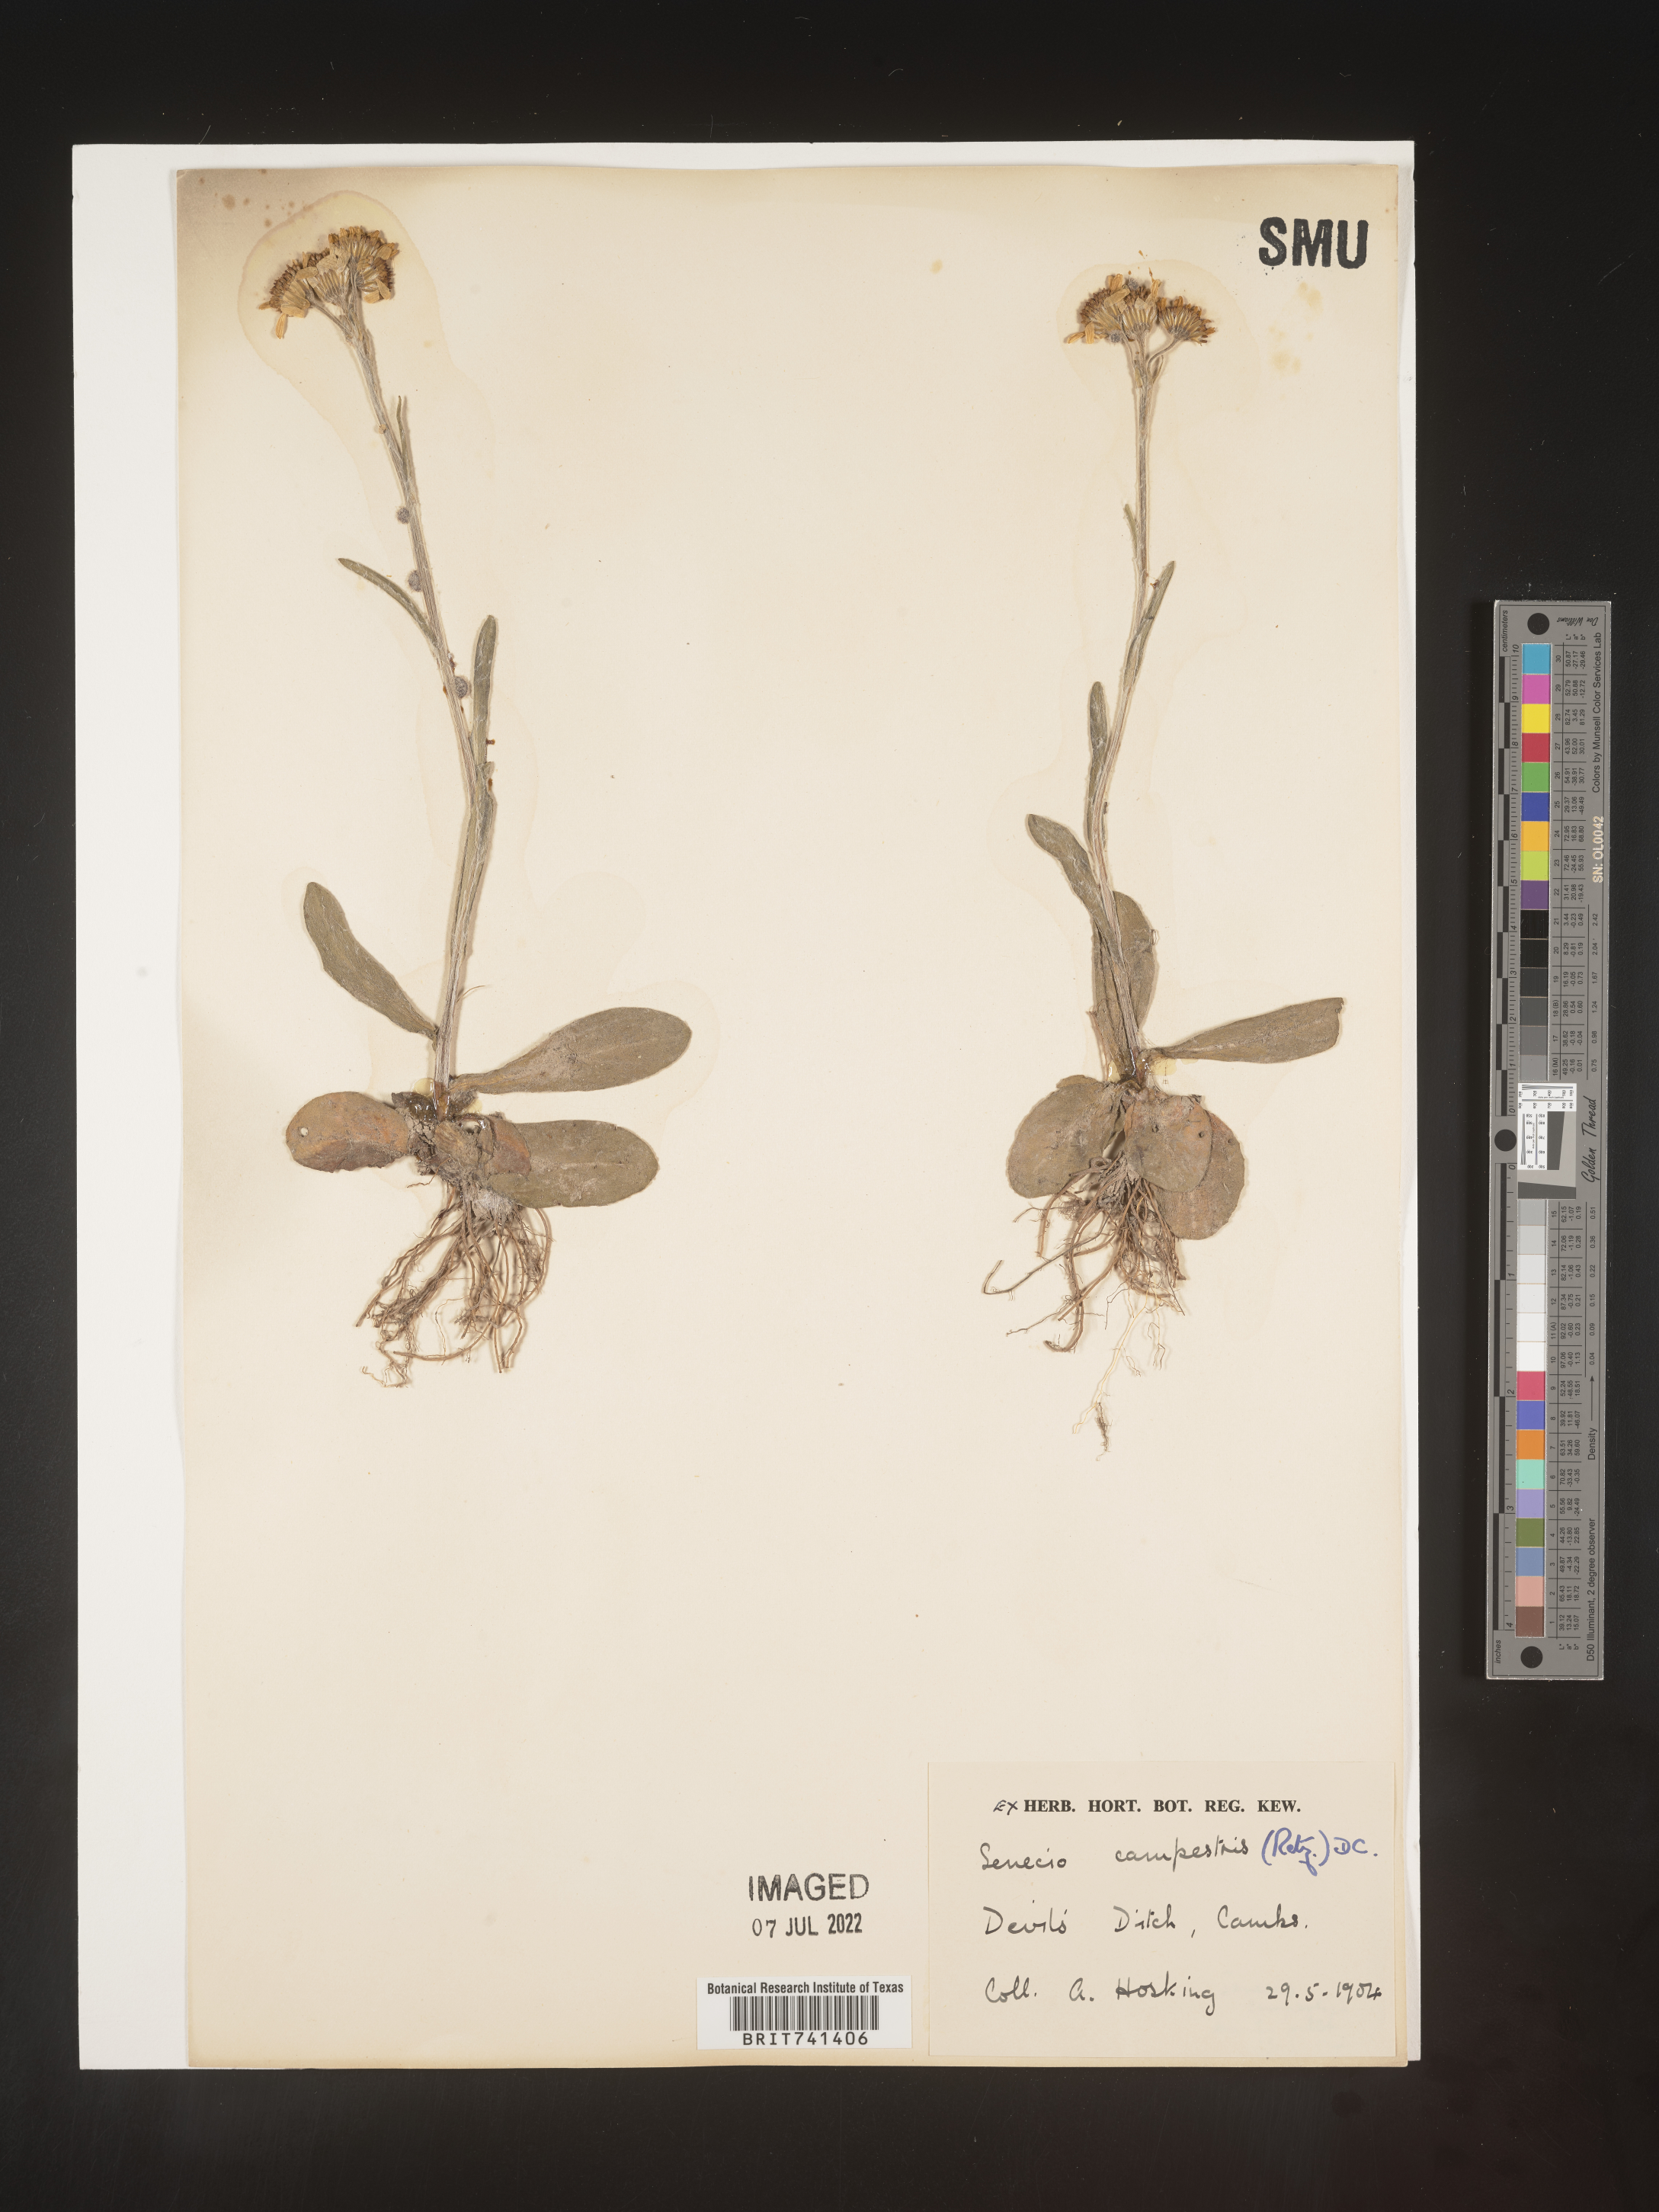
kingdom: Plantae
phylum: Tracheophyta
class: Magnoliopsida
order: Asterales
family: Asteraceae
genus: Senecio
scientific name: Senecio
